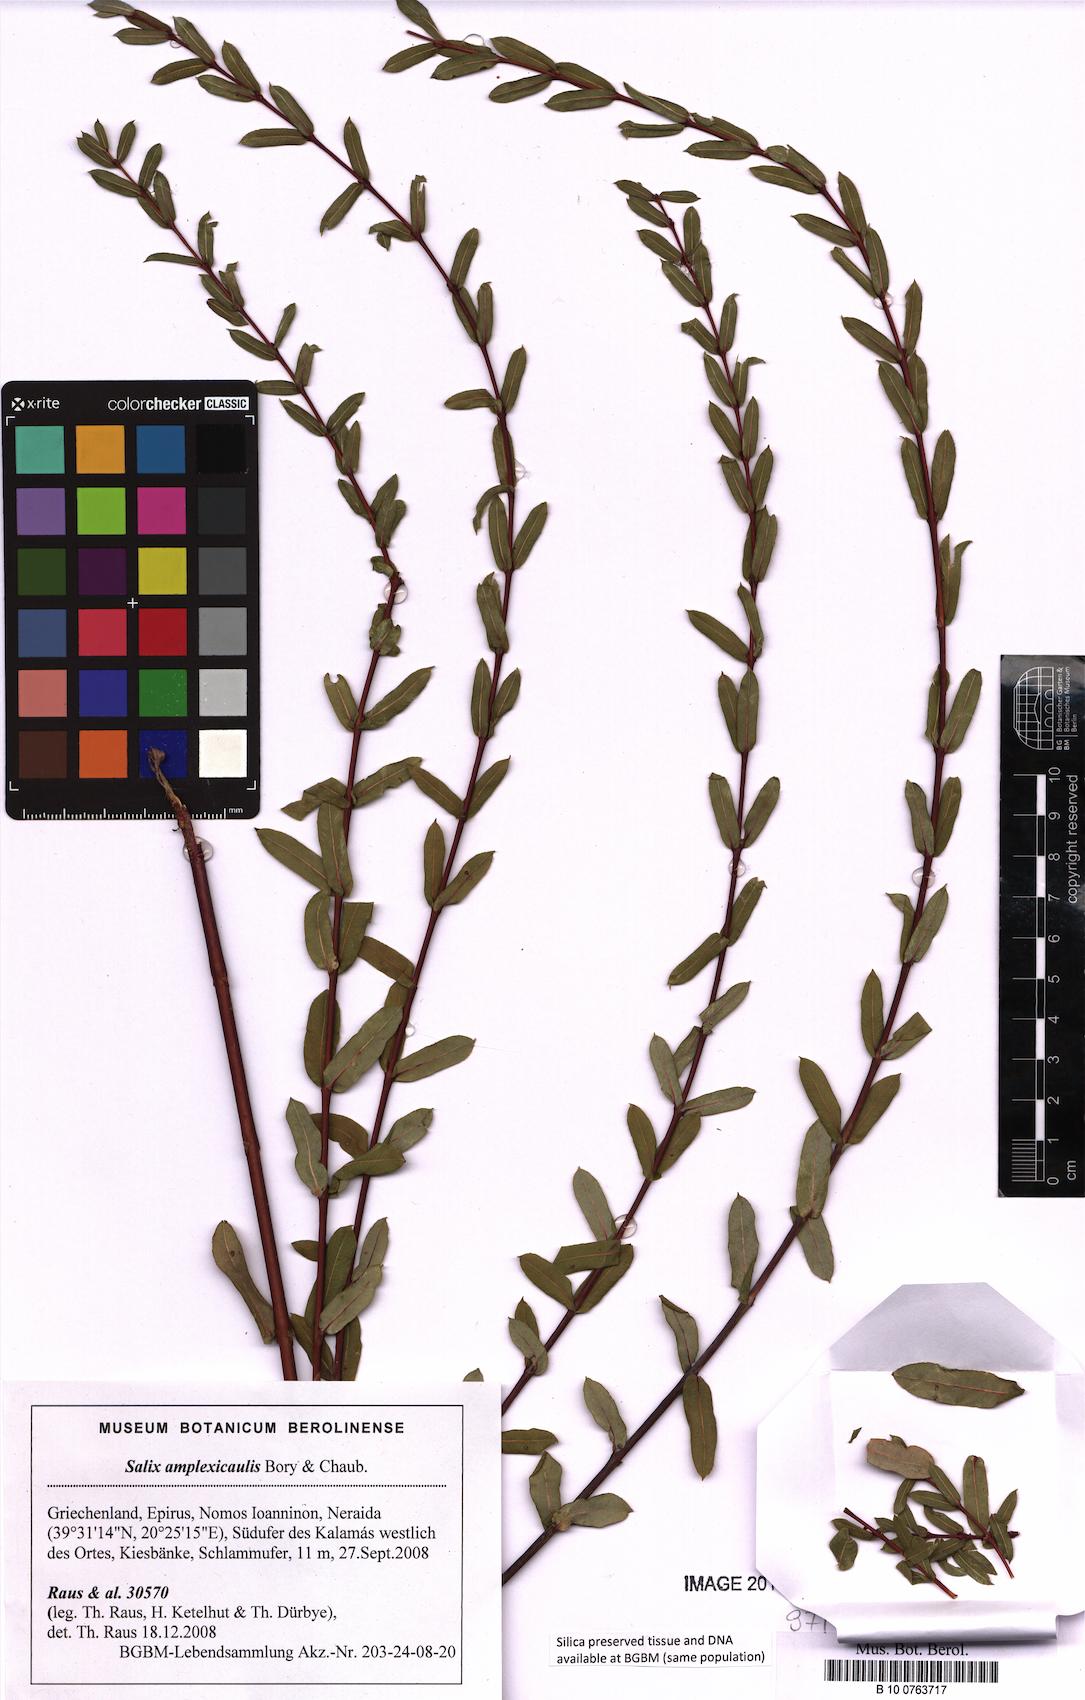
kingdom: Plantae
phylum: Tracheophyta
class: Magnoliopsida
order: Malpighiales
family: Salicaceae
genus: Salix
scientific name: Salix amplexicaulis
